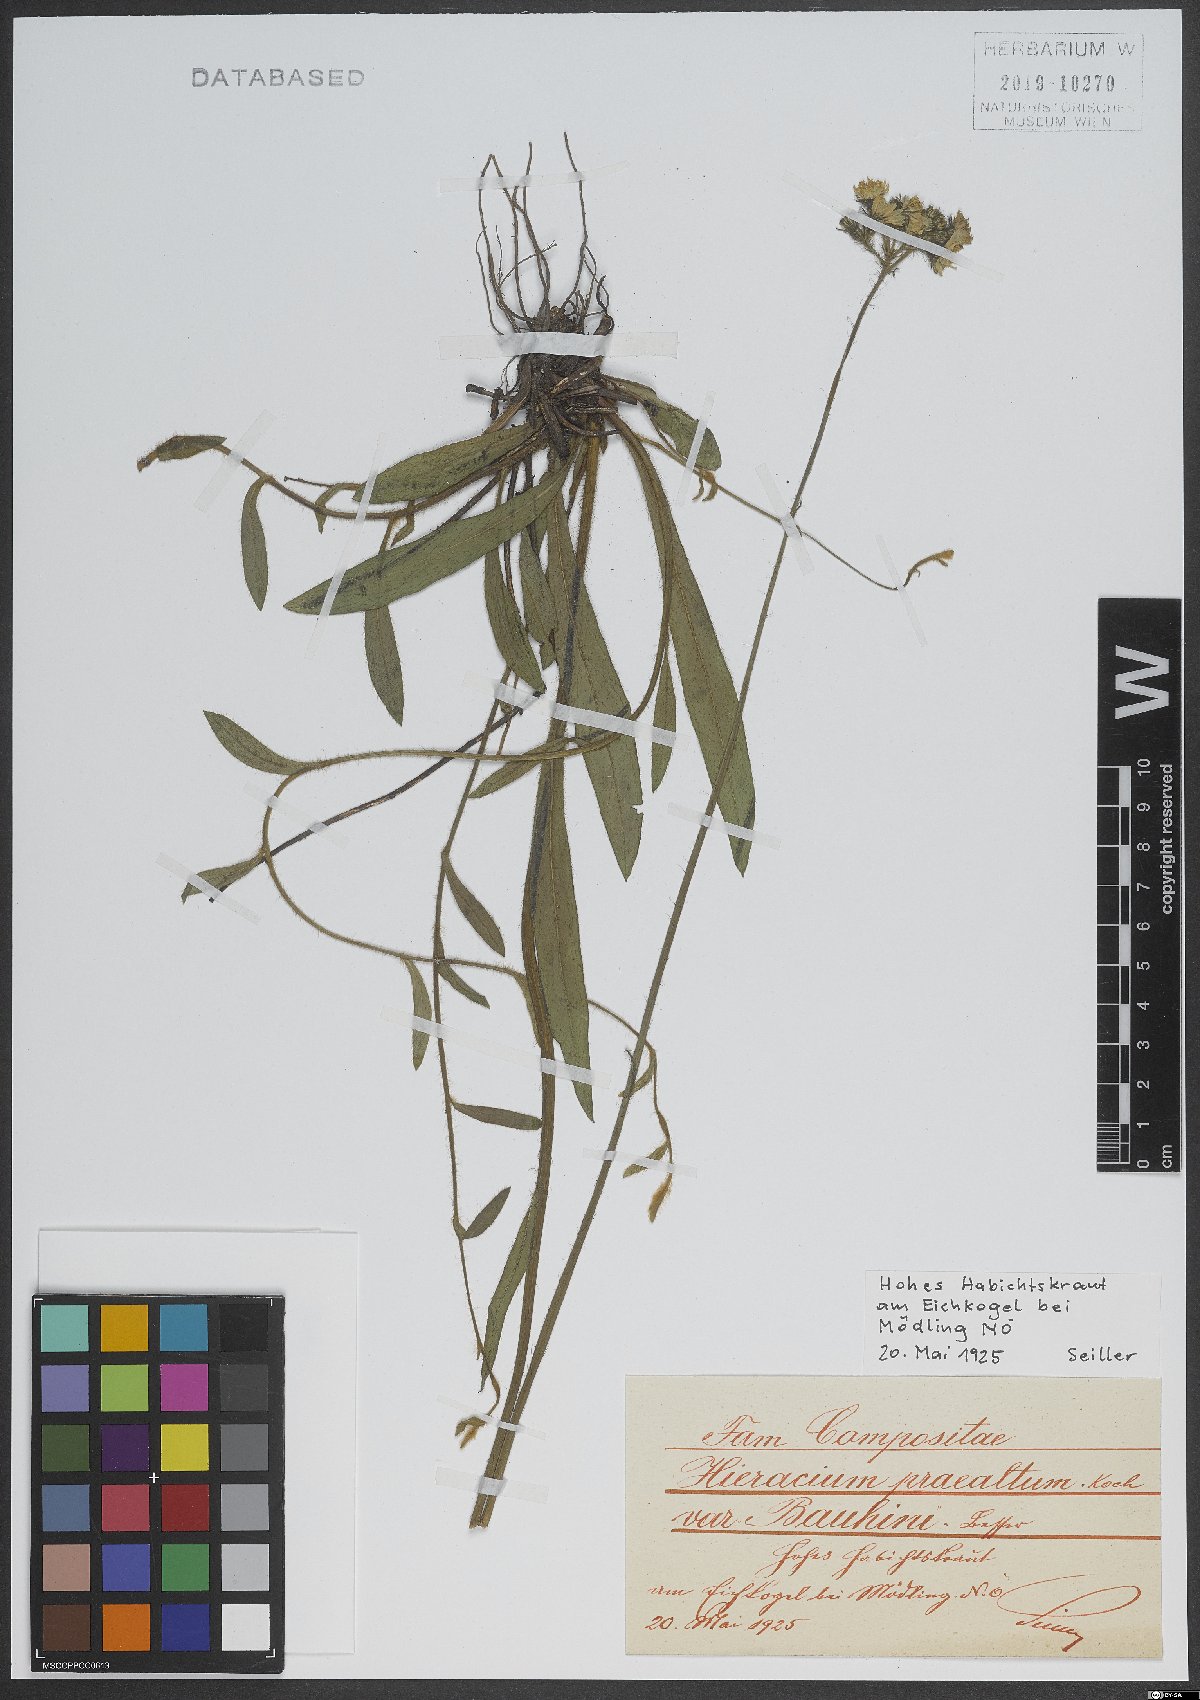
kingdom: Plantae
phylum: Tracheophyta
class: Magnoliopsida
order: Asterales
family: Asteraceae
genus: Pilosella
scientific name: Pilosella bauhini
